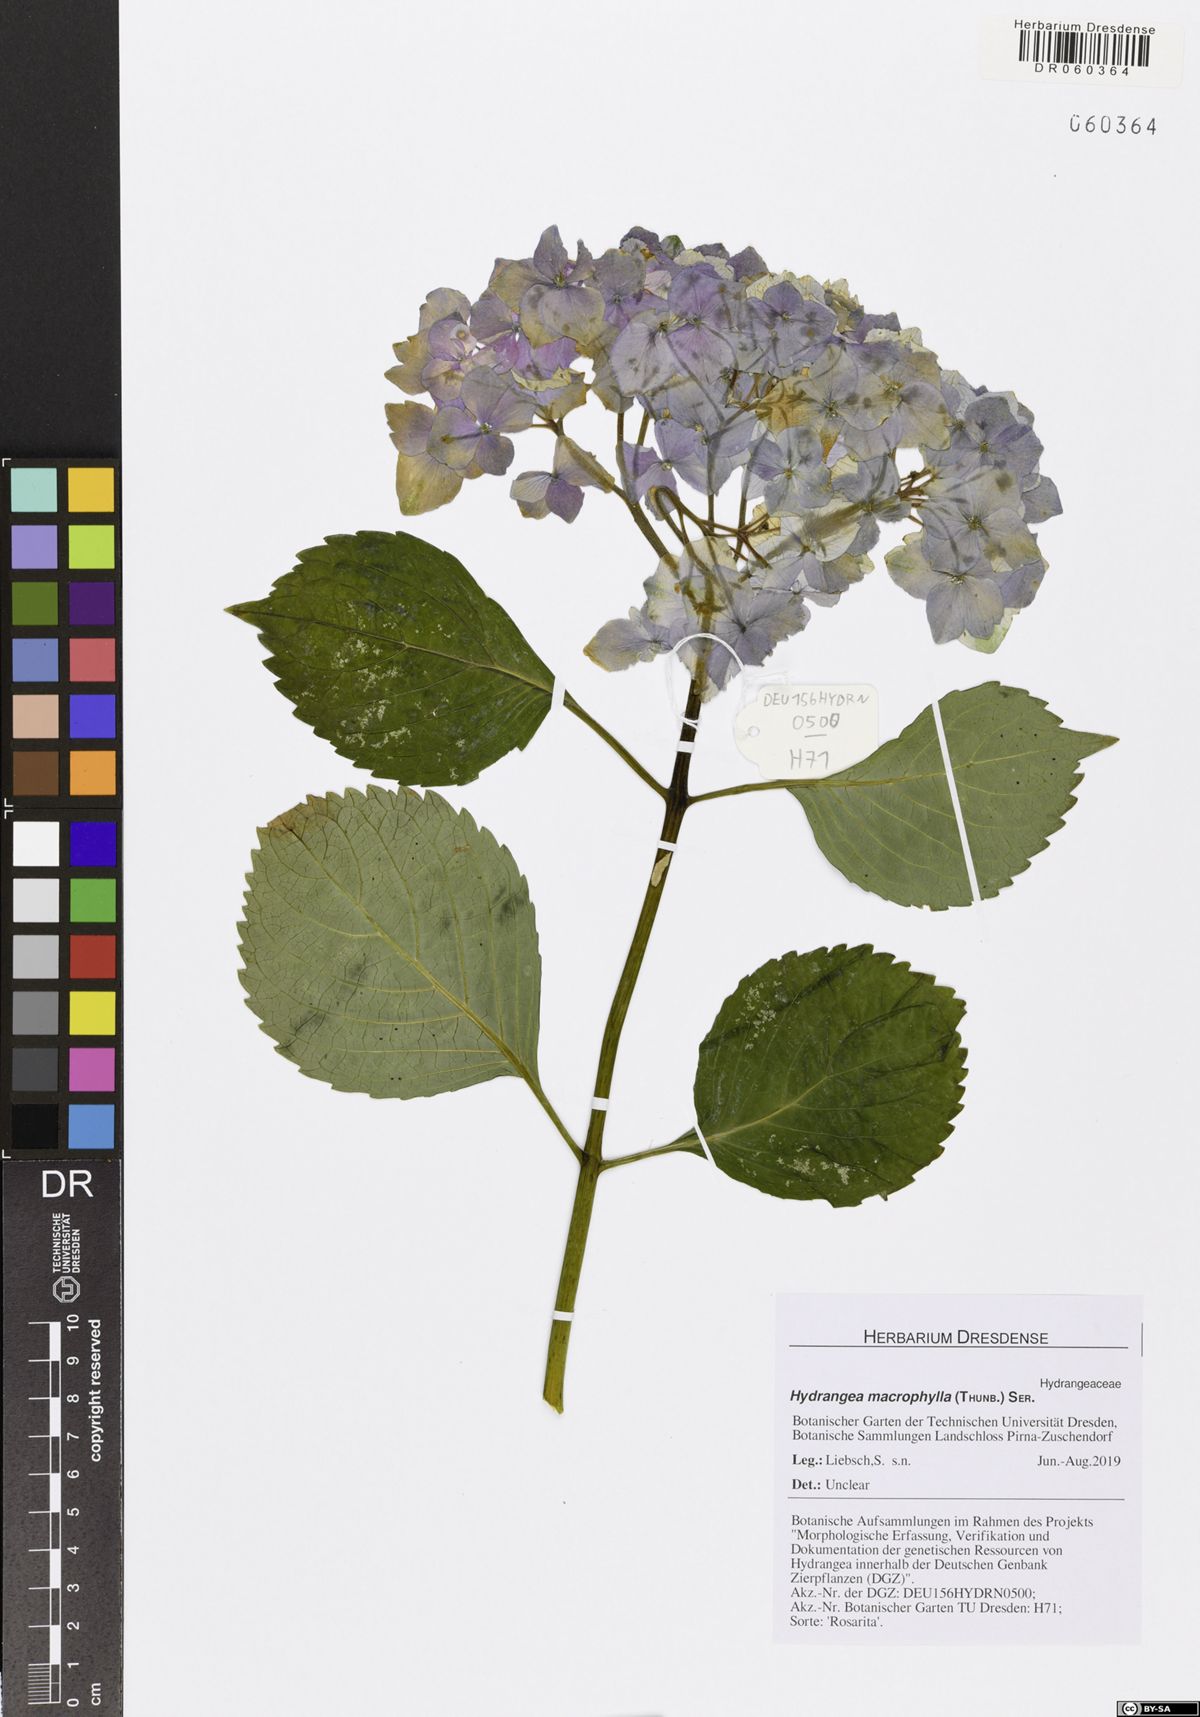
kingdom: Plantae
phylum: Tracheophyta
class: Magnoliopsida
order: Cornales
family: Hydrangeaceae
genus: Hydrangea
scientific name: Hydrangea macrophylla
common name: Hydrangea
